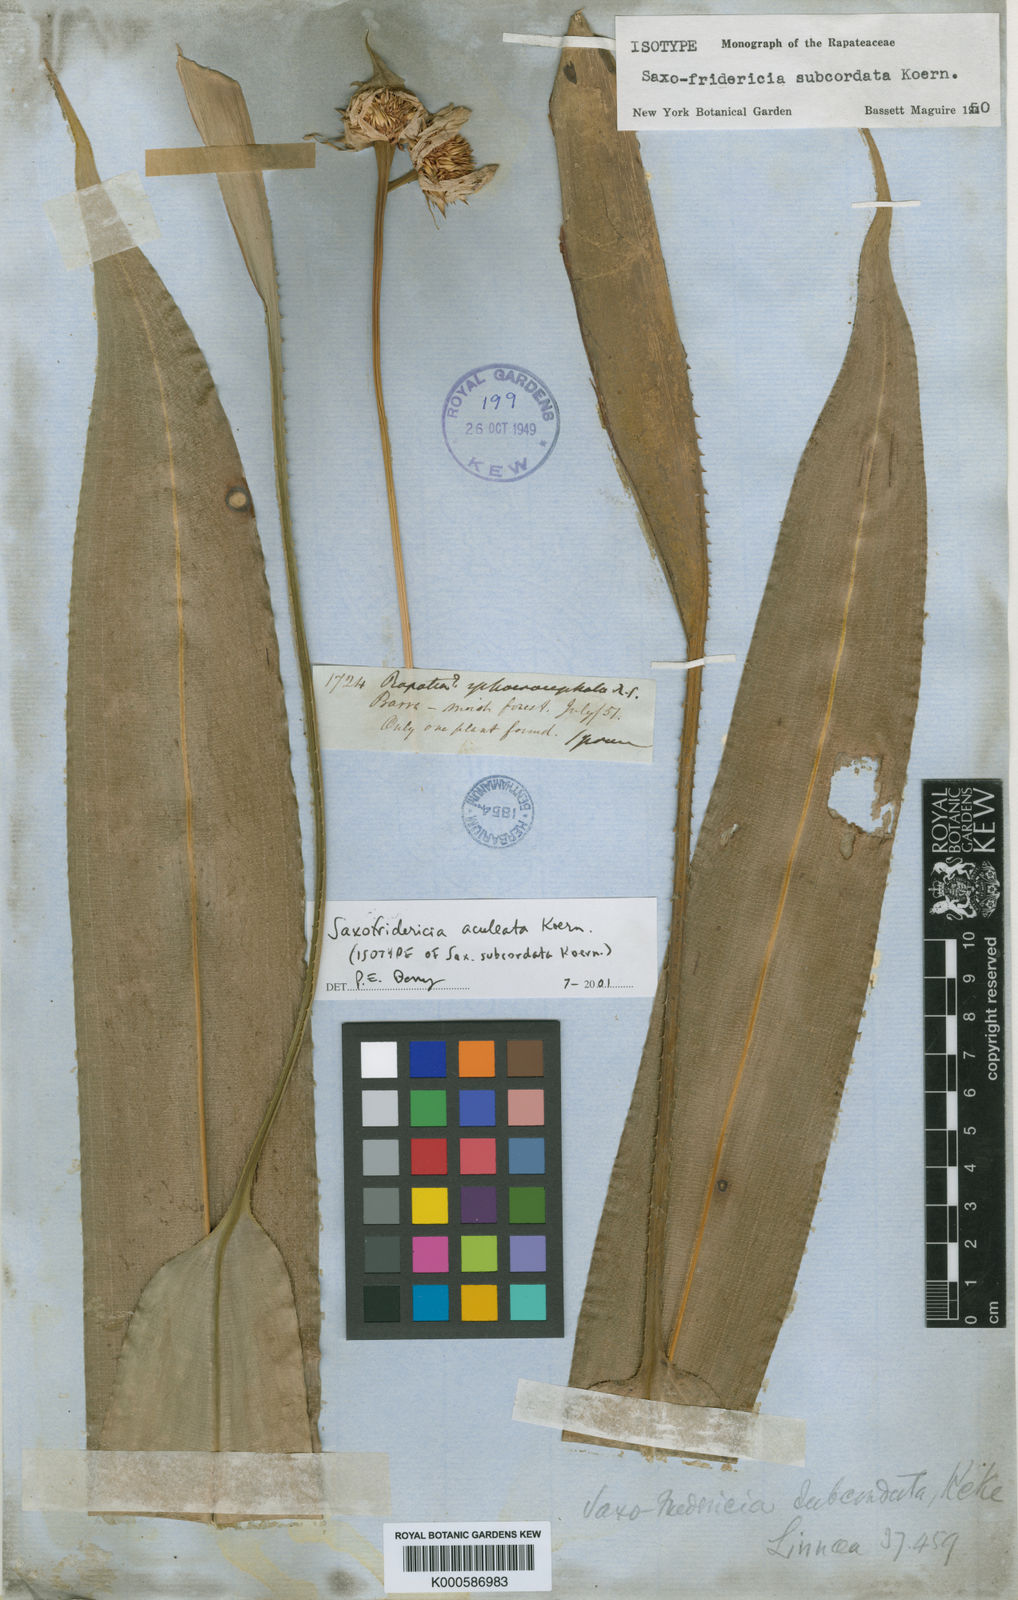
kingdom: Plantae
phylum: Tracheophyta
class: Liliopsida
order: Poales
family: Rapateaceae
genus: Saxofridericia
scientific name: Saxofridericia
